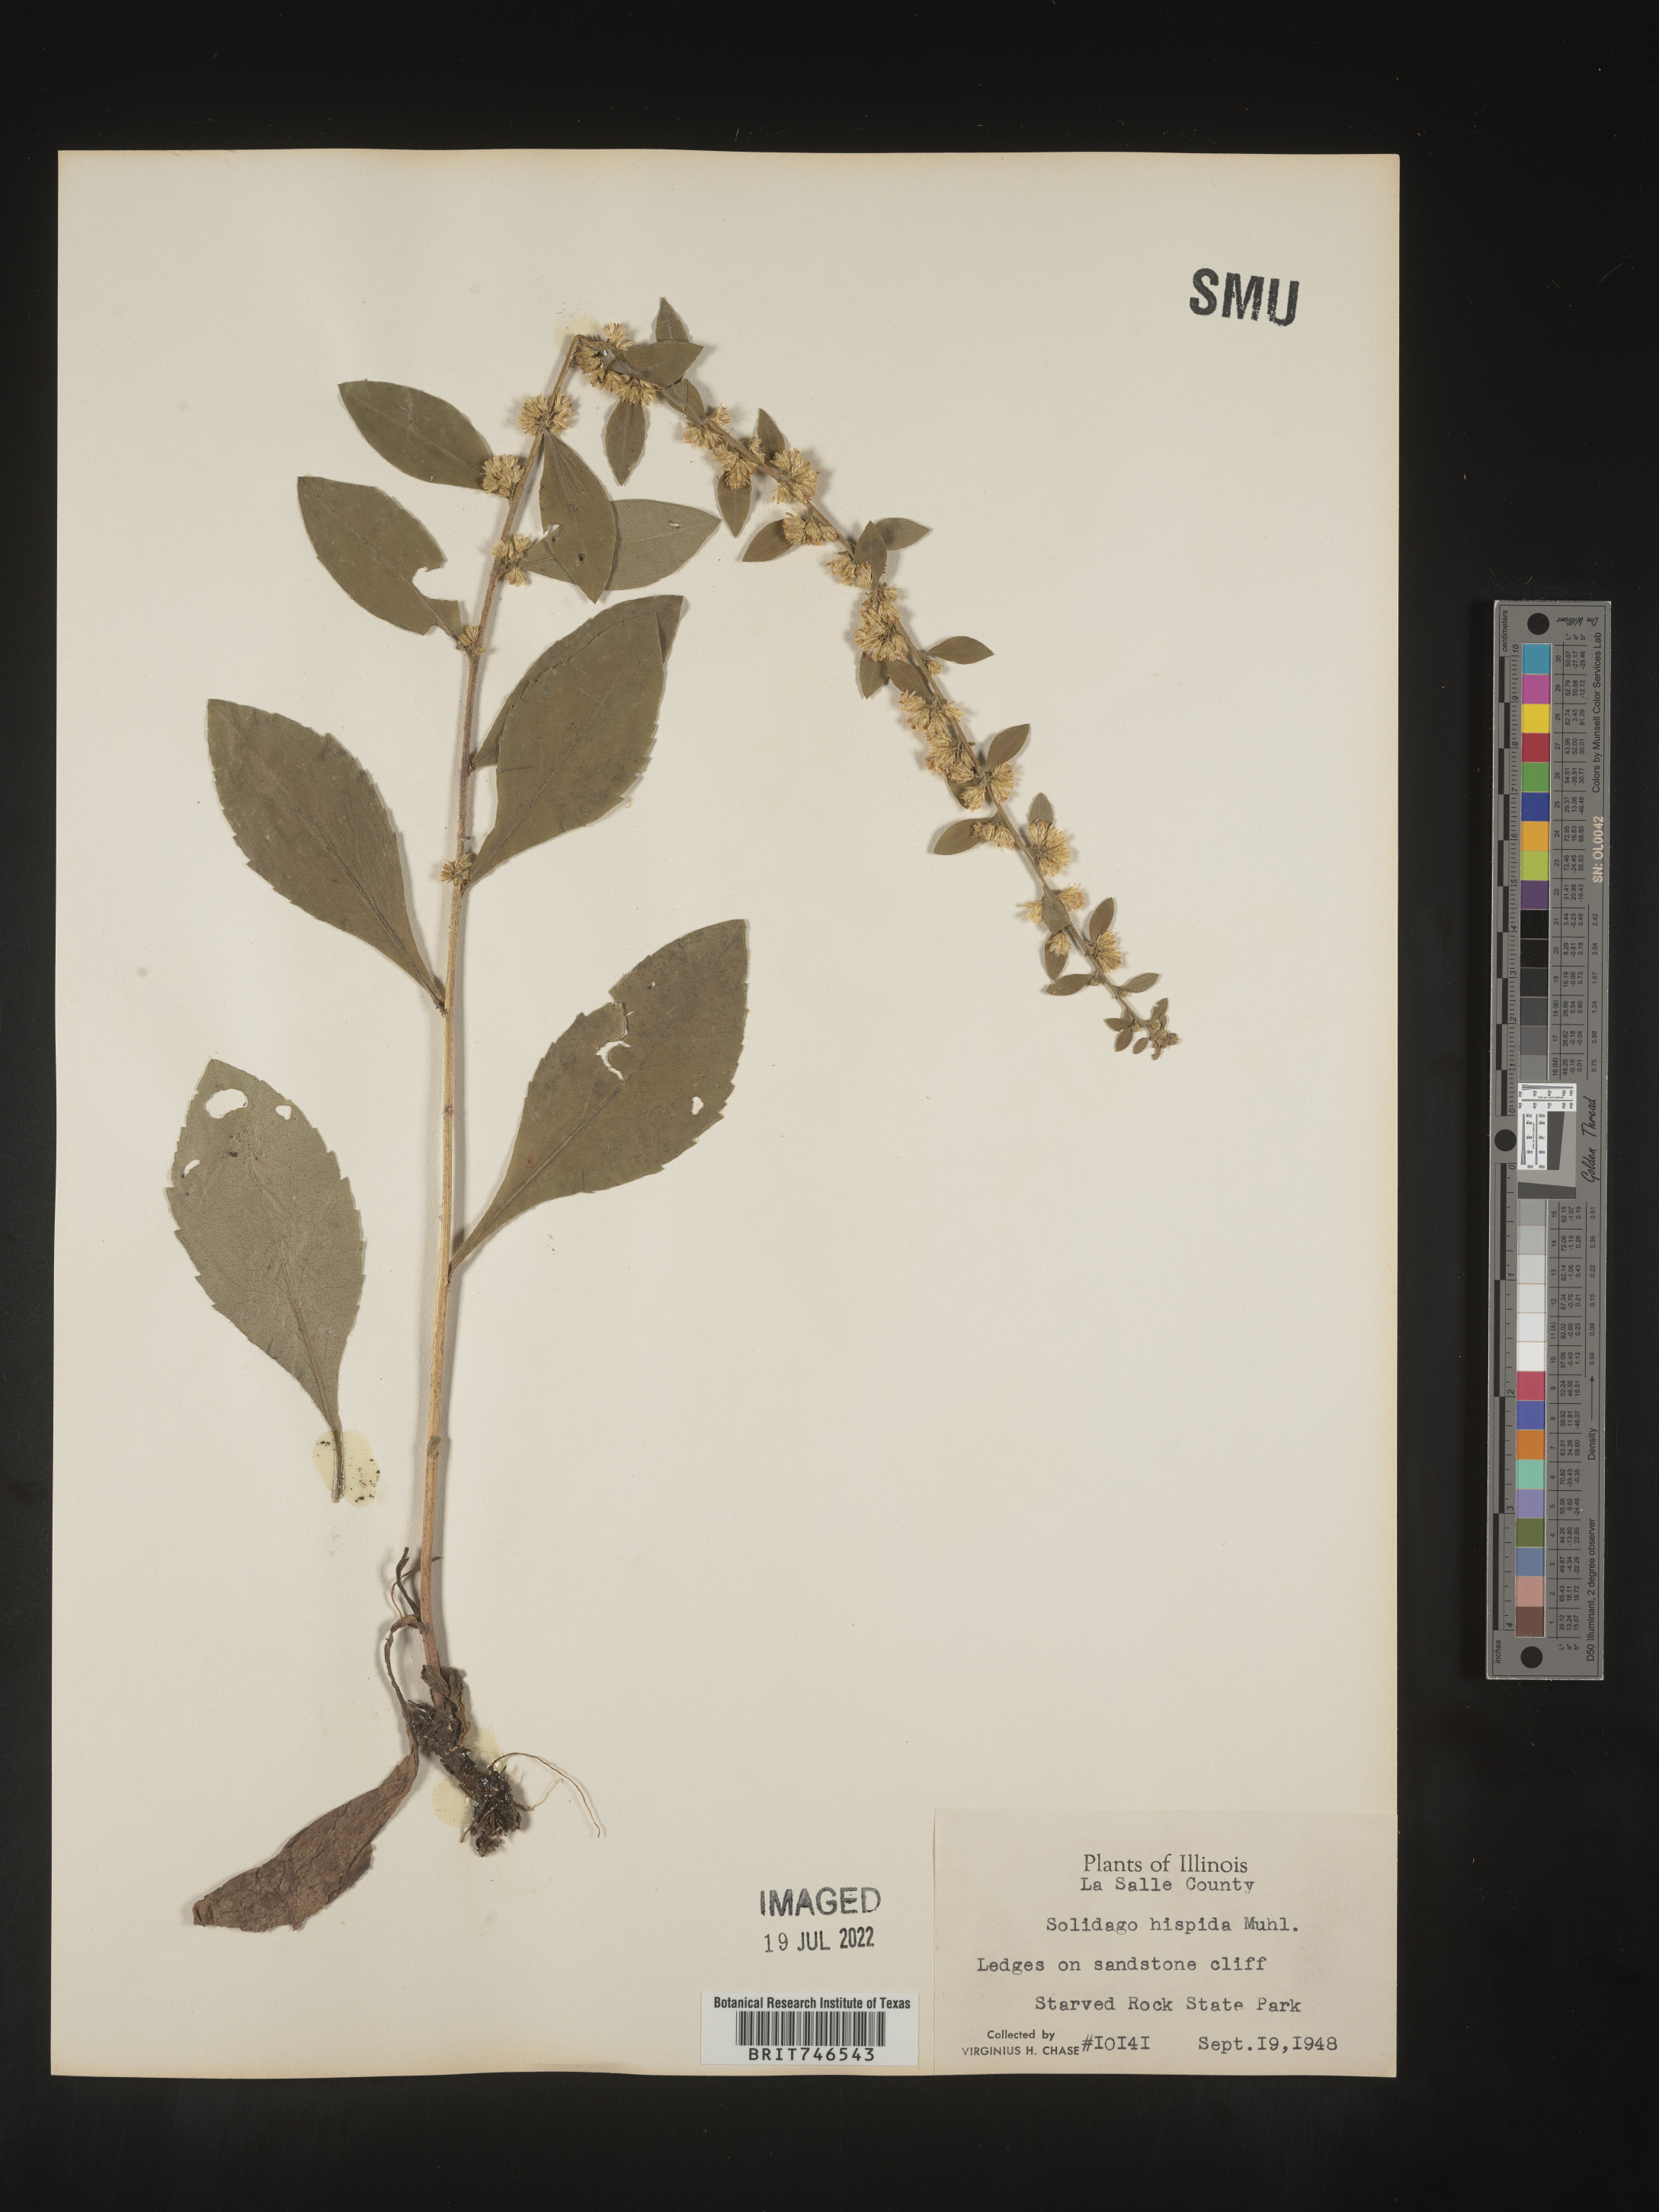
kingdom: Plantae
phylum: Tracheophyta
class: Magnoliopsida
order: Asterales
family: Asteraceae
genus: Solidago
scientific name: Solidago hispida
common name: Hairy goldenrod
